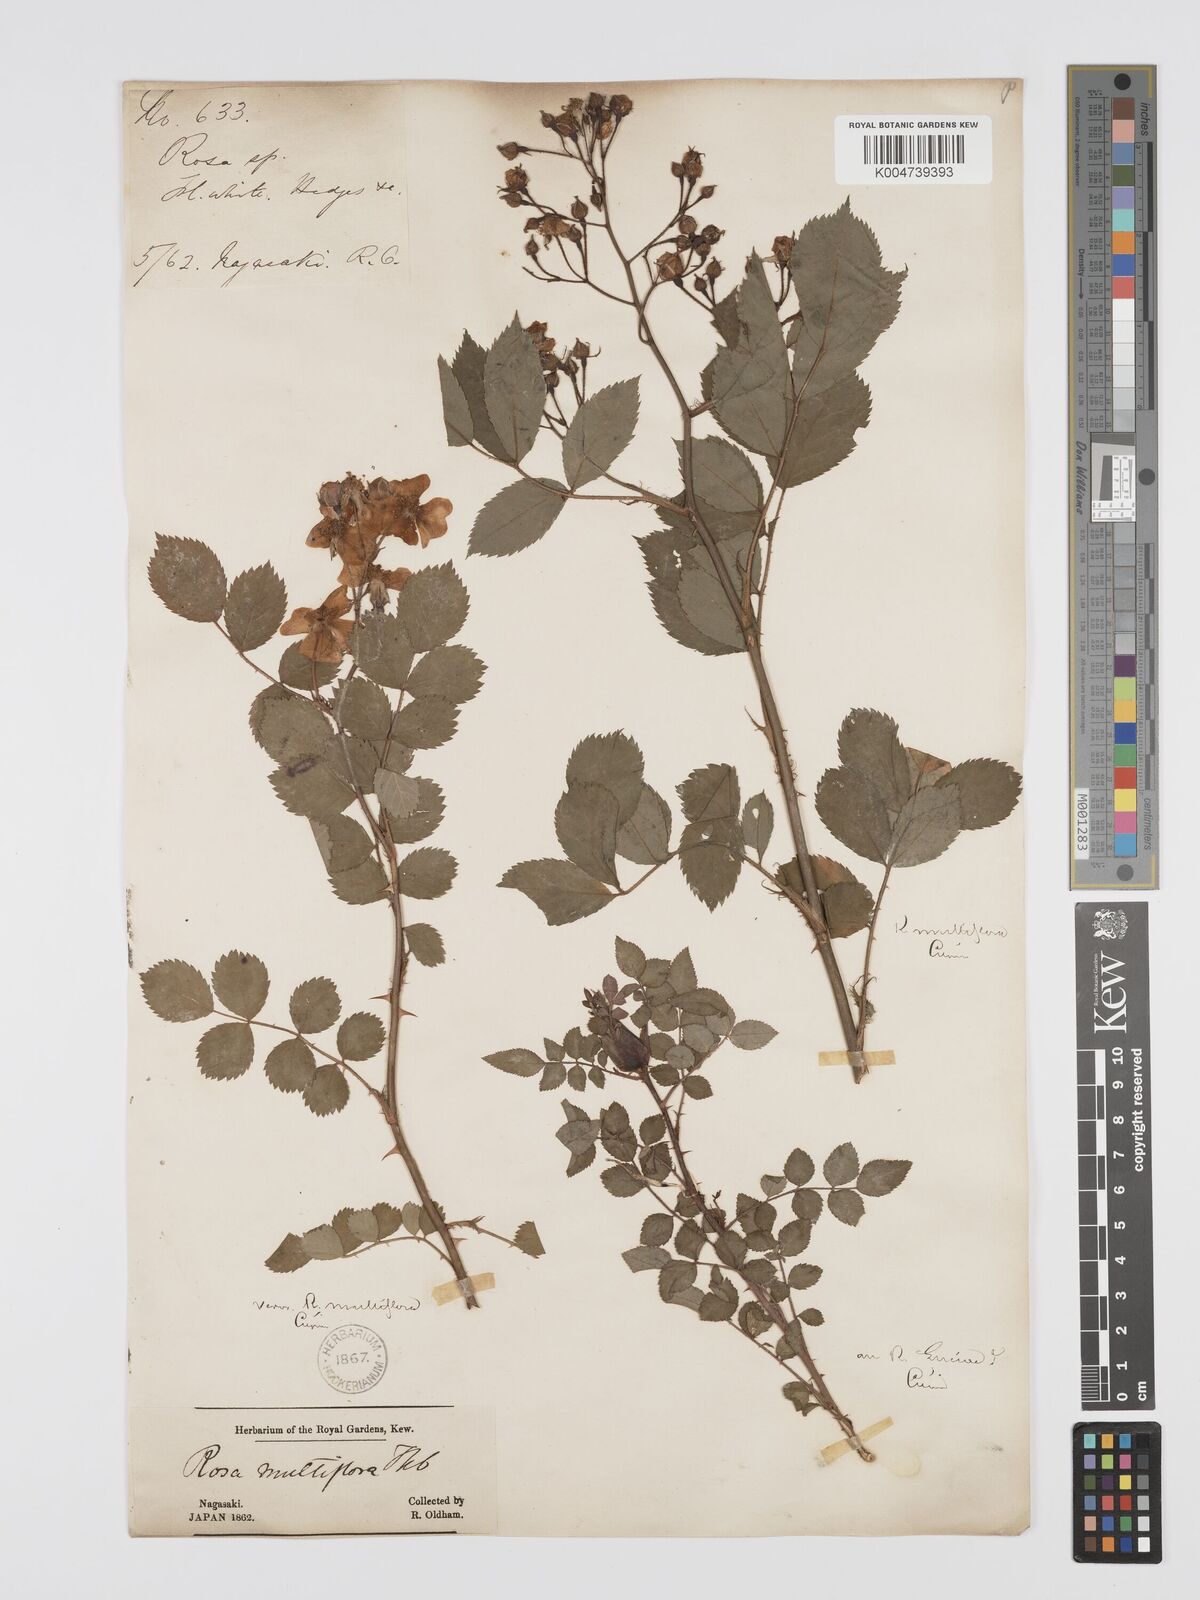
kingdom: Plantae
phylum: Tracheophyta
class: Magnoliopsida
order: Rosales
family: Rosaceae
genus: Rosa
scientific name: Rosa multiflora
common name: Multiflora rose
